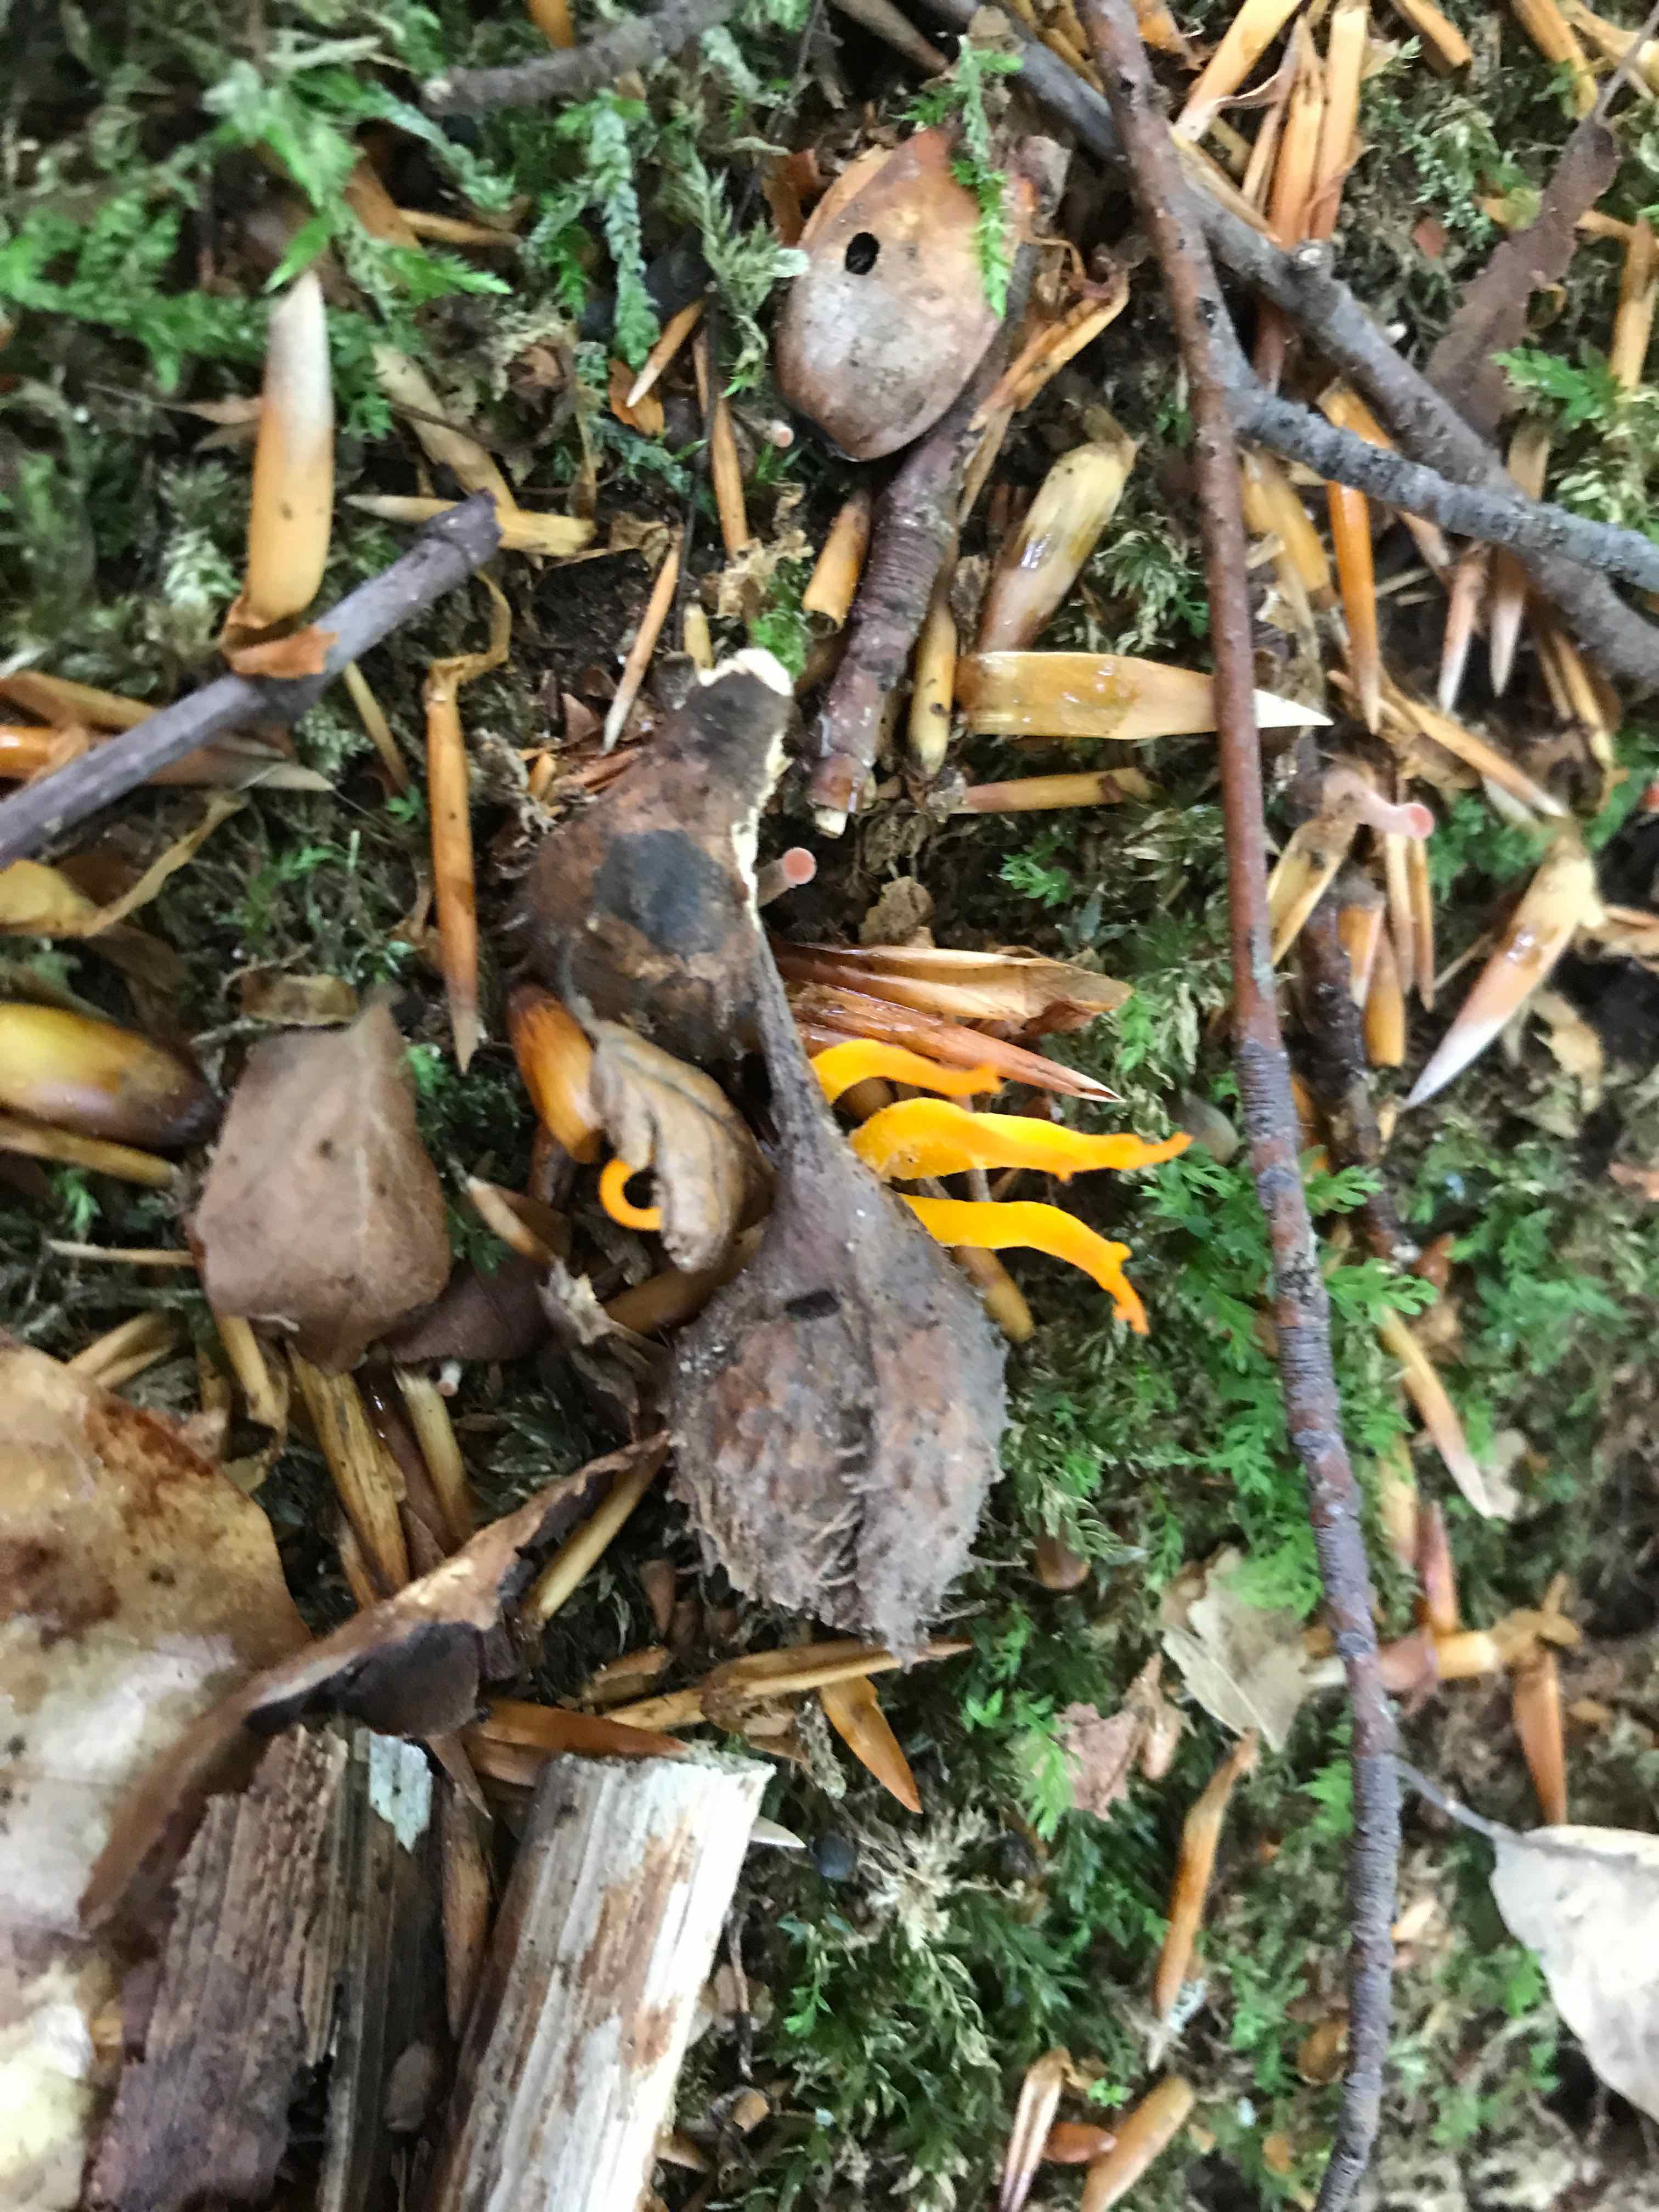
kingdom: Fungi
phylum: Basidiomycota
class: Dacrymycetes
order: Dacrymycetales
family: Dacrymycetaceae
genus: Calocera
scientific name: Calocera viscosa
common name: almindelig guldgaffel
